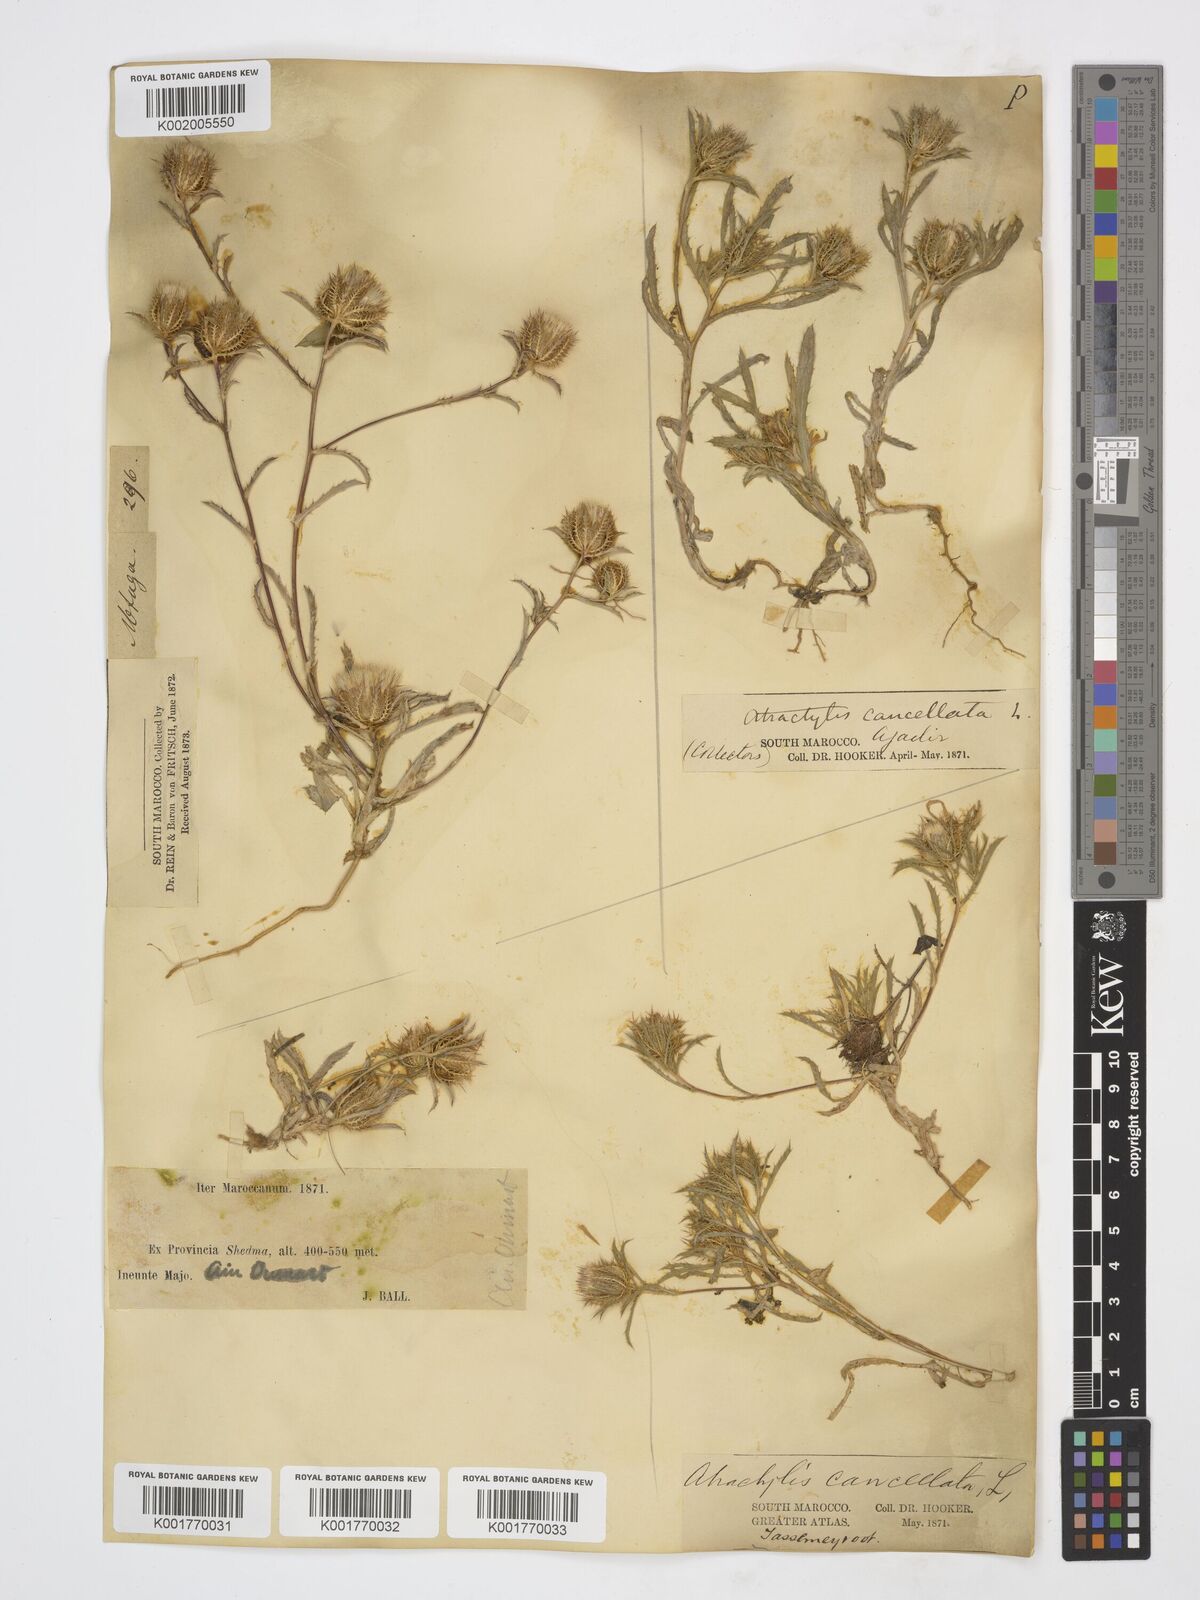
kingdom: Plantae
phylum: Tracheophyta
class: Magnoliopsida
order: Asterales
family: Asteraceae
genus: Atractylis
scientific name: Atractylis cancellata
